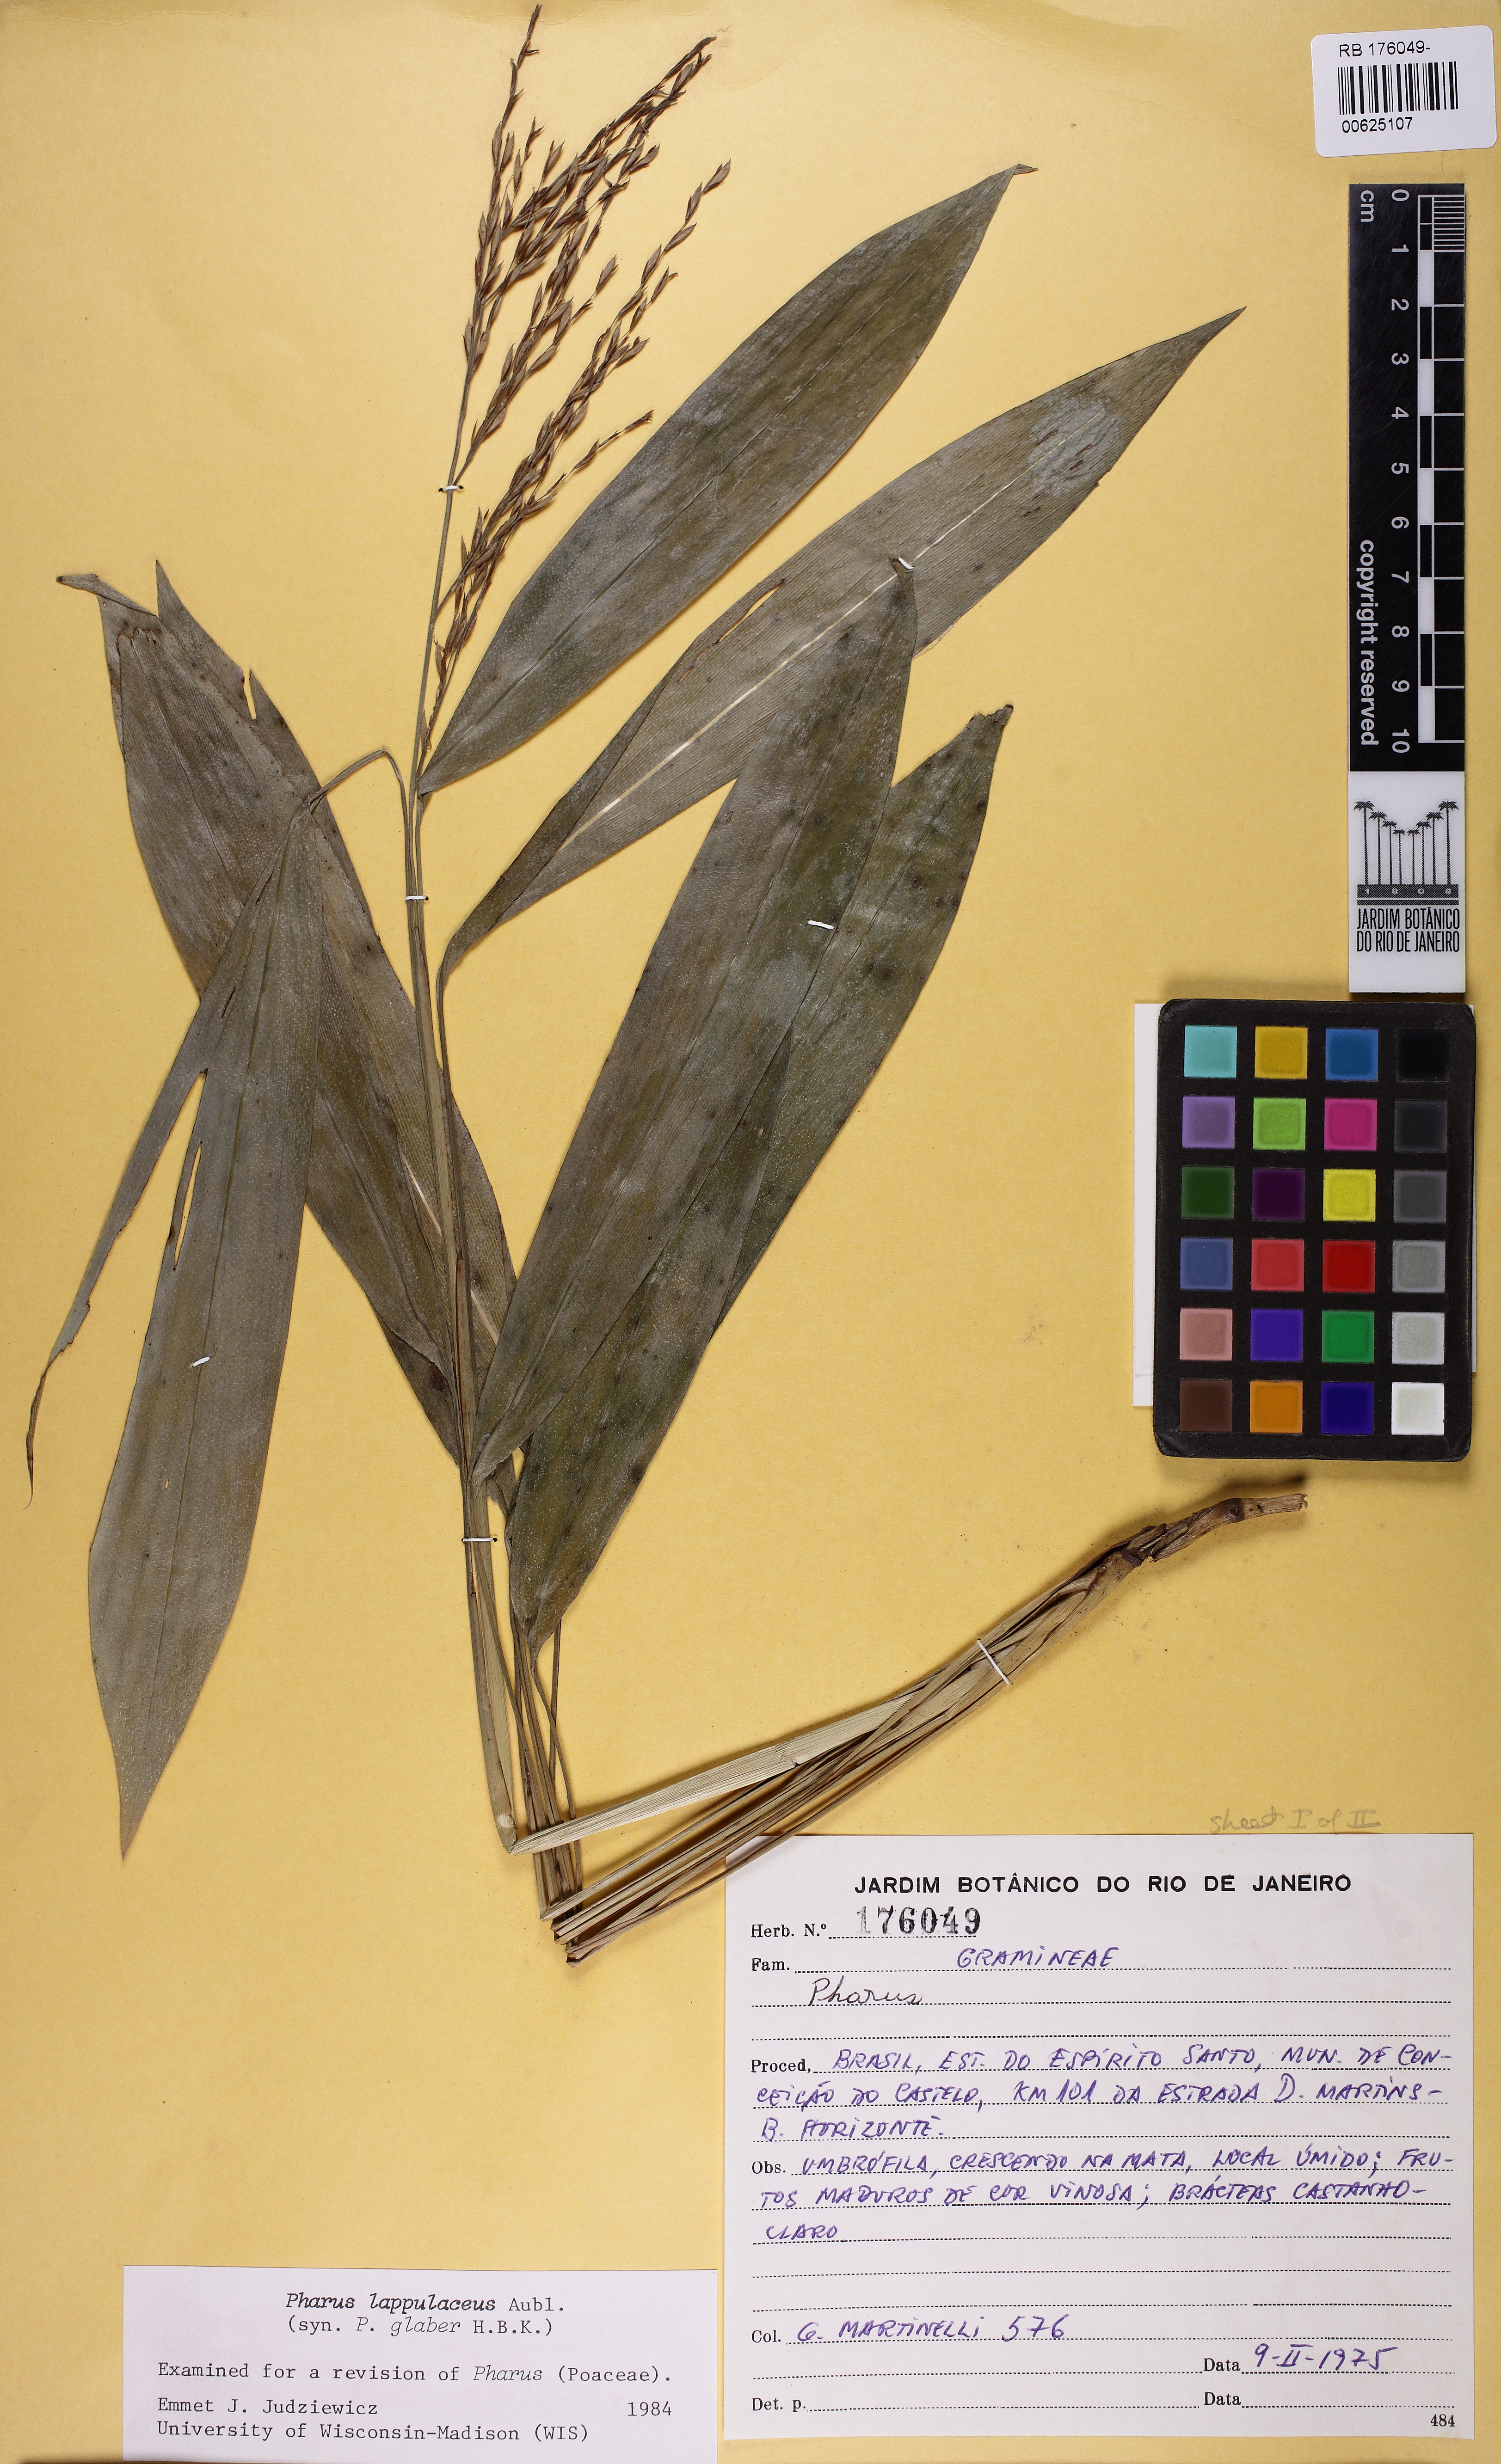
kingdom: Plantae
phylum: Tracheophyta
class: Liliopsida
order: Poales
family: Poaceae
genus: Pharus
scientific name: Pharus lappulaceus
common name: Creeping leafstalk grass
